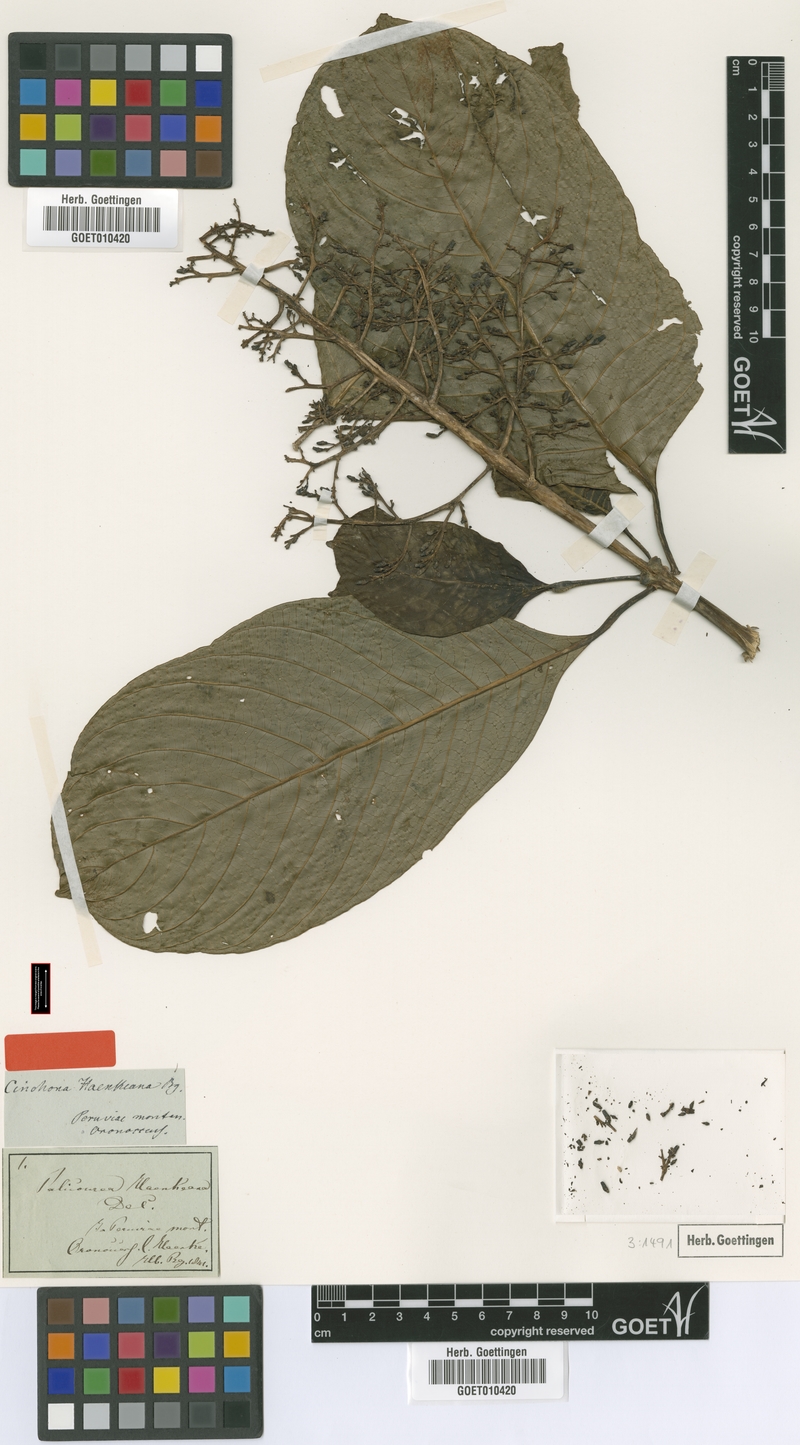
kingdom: Plantae
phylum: Tracheophyta
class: Magnoliopsida
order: Gentianales
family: Rubiaceae
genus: Palicourea
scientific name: Palicourea conferta
